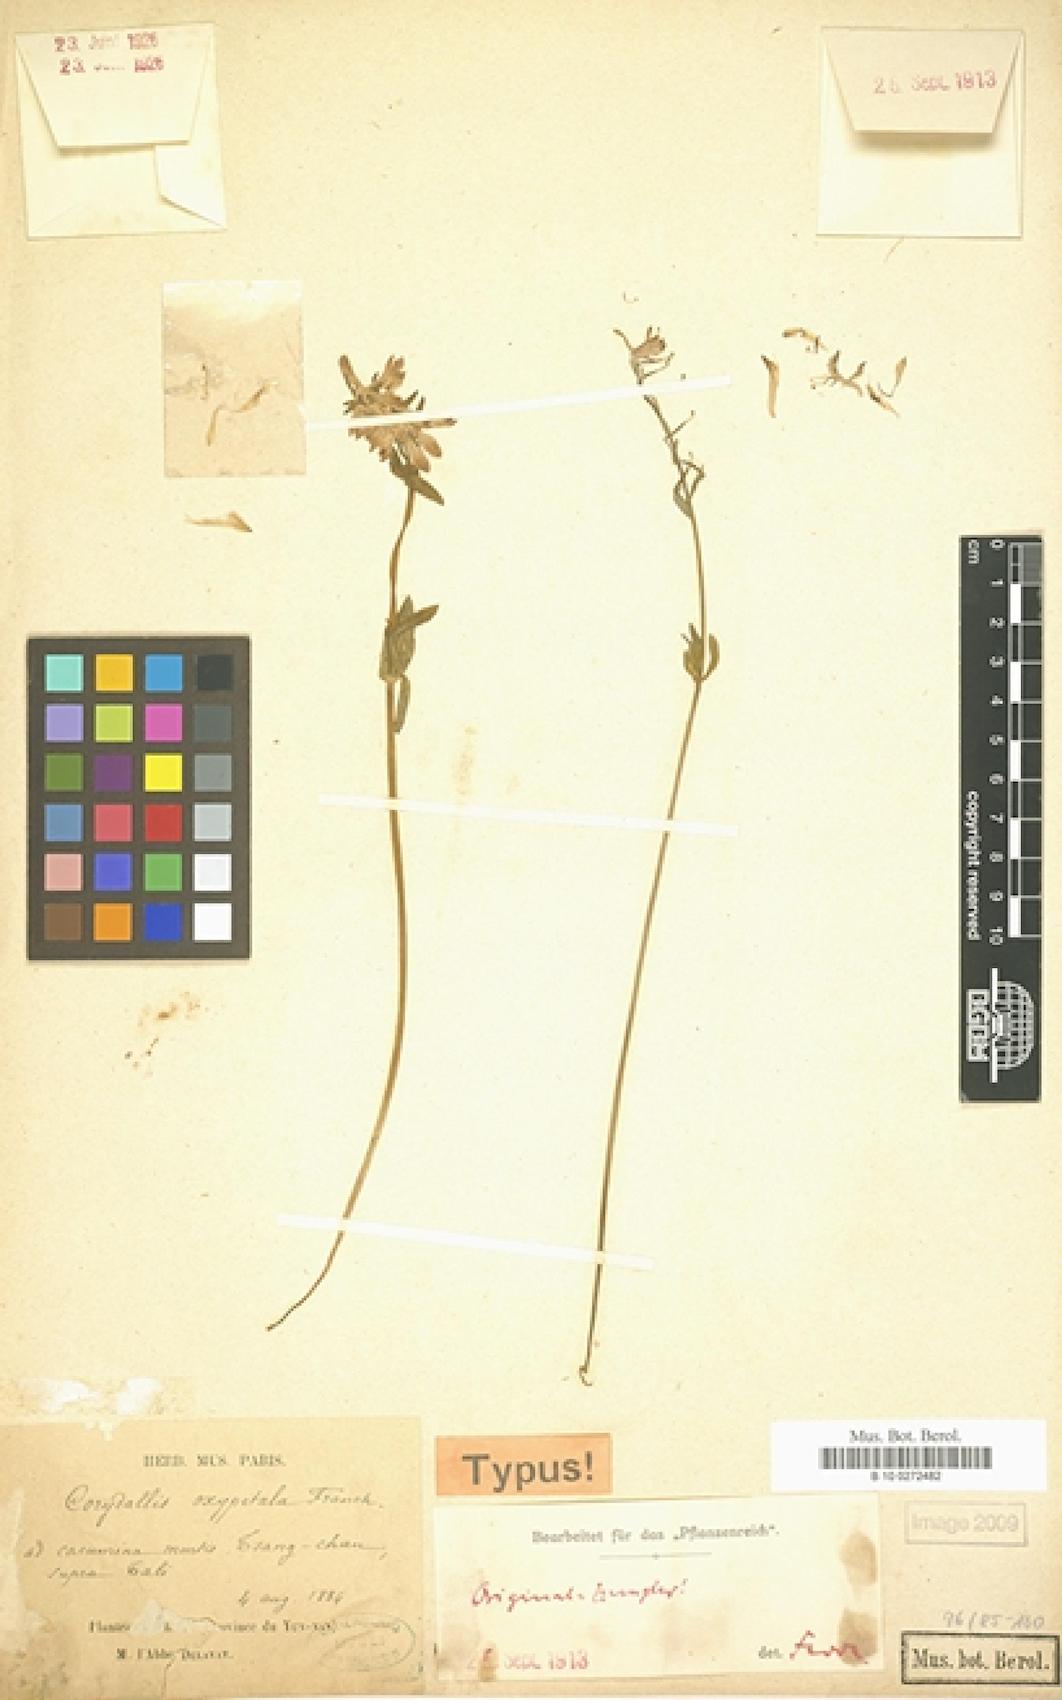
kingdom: Plantae
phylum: Tracheophyta
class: Magnoliopsida
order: Ranunculales
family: Papaveraceae
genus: Corydalis
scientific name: Corydalis oxypetala
